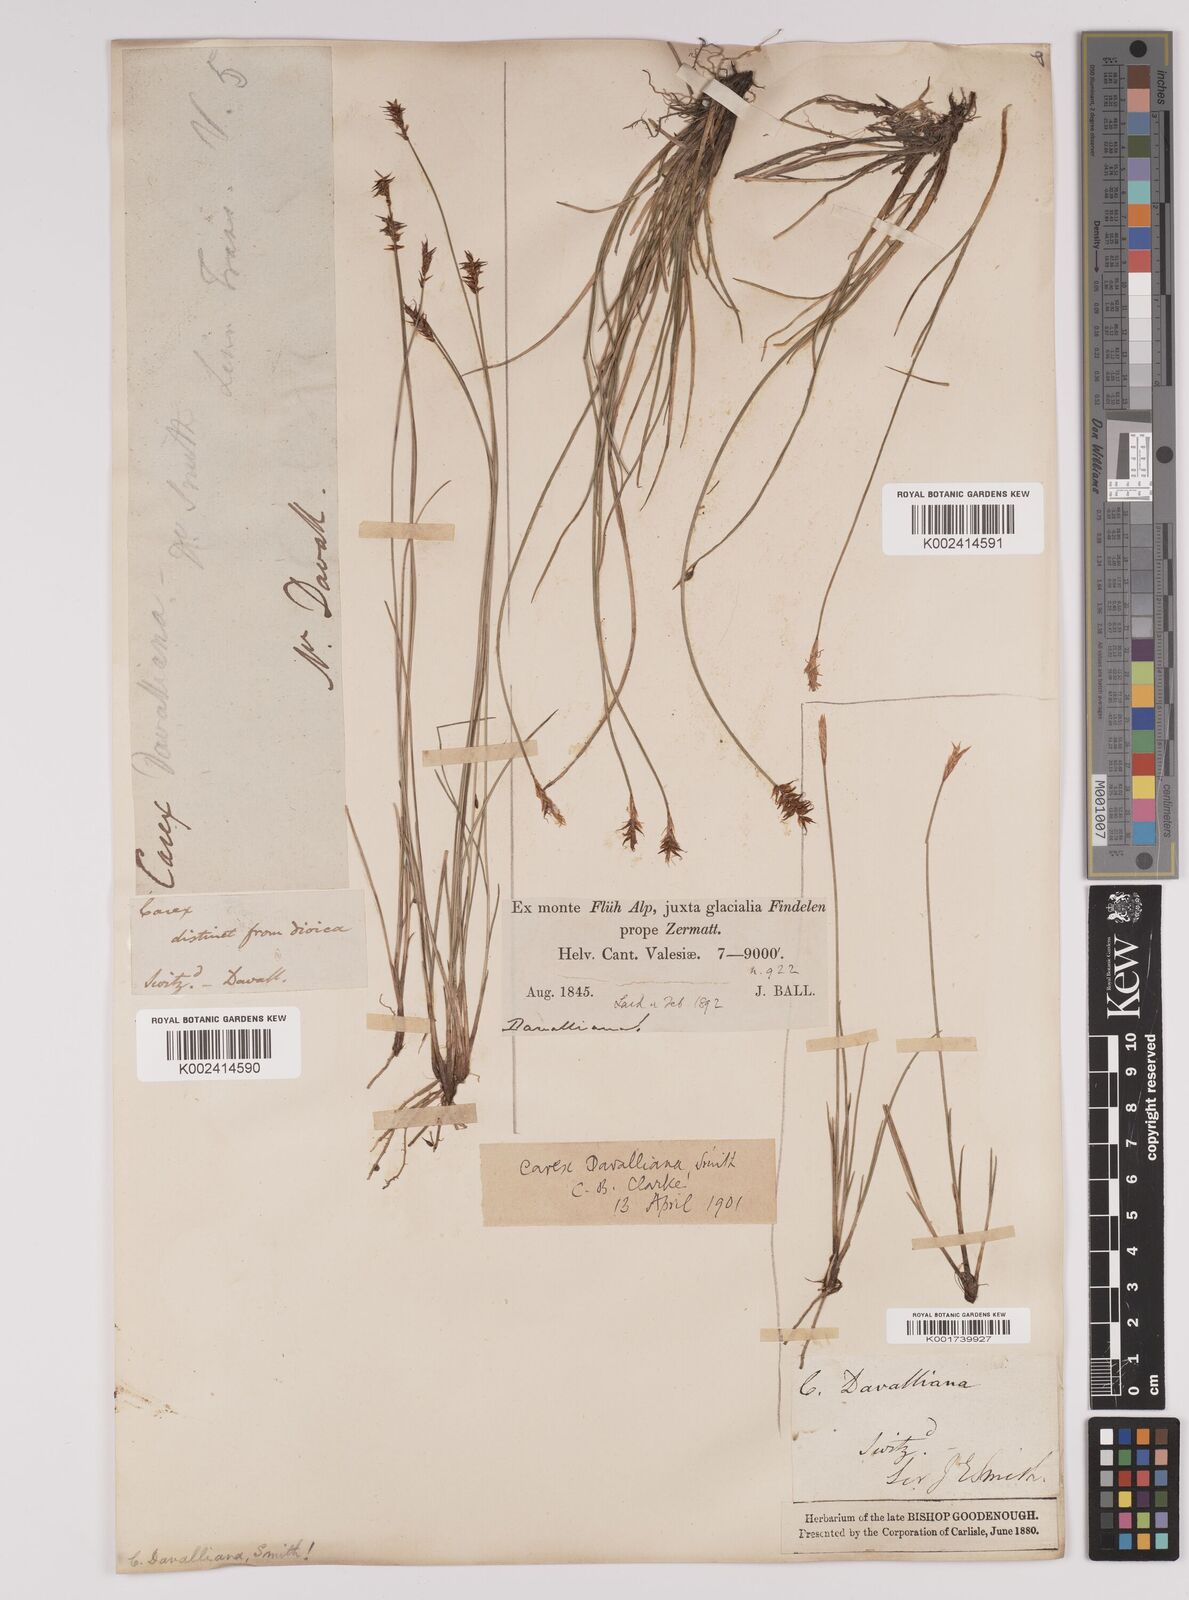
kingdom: Plantae
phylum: Tracheophyta
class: Liliopsida
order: Poales
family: Cyperaceae
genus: Carex
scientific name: Carex davalliana
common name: Davall's sedge
